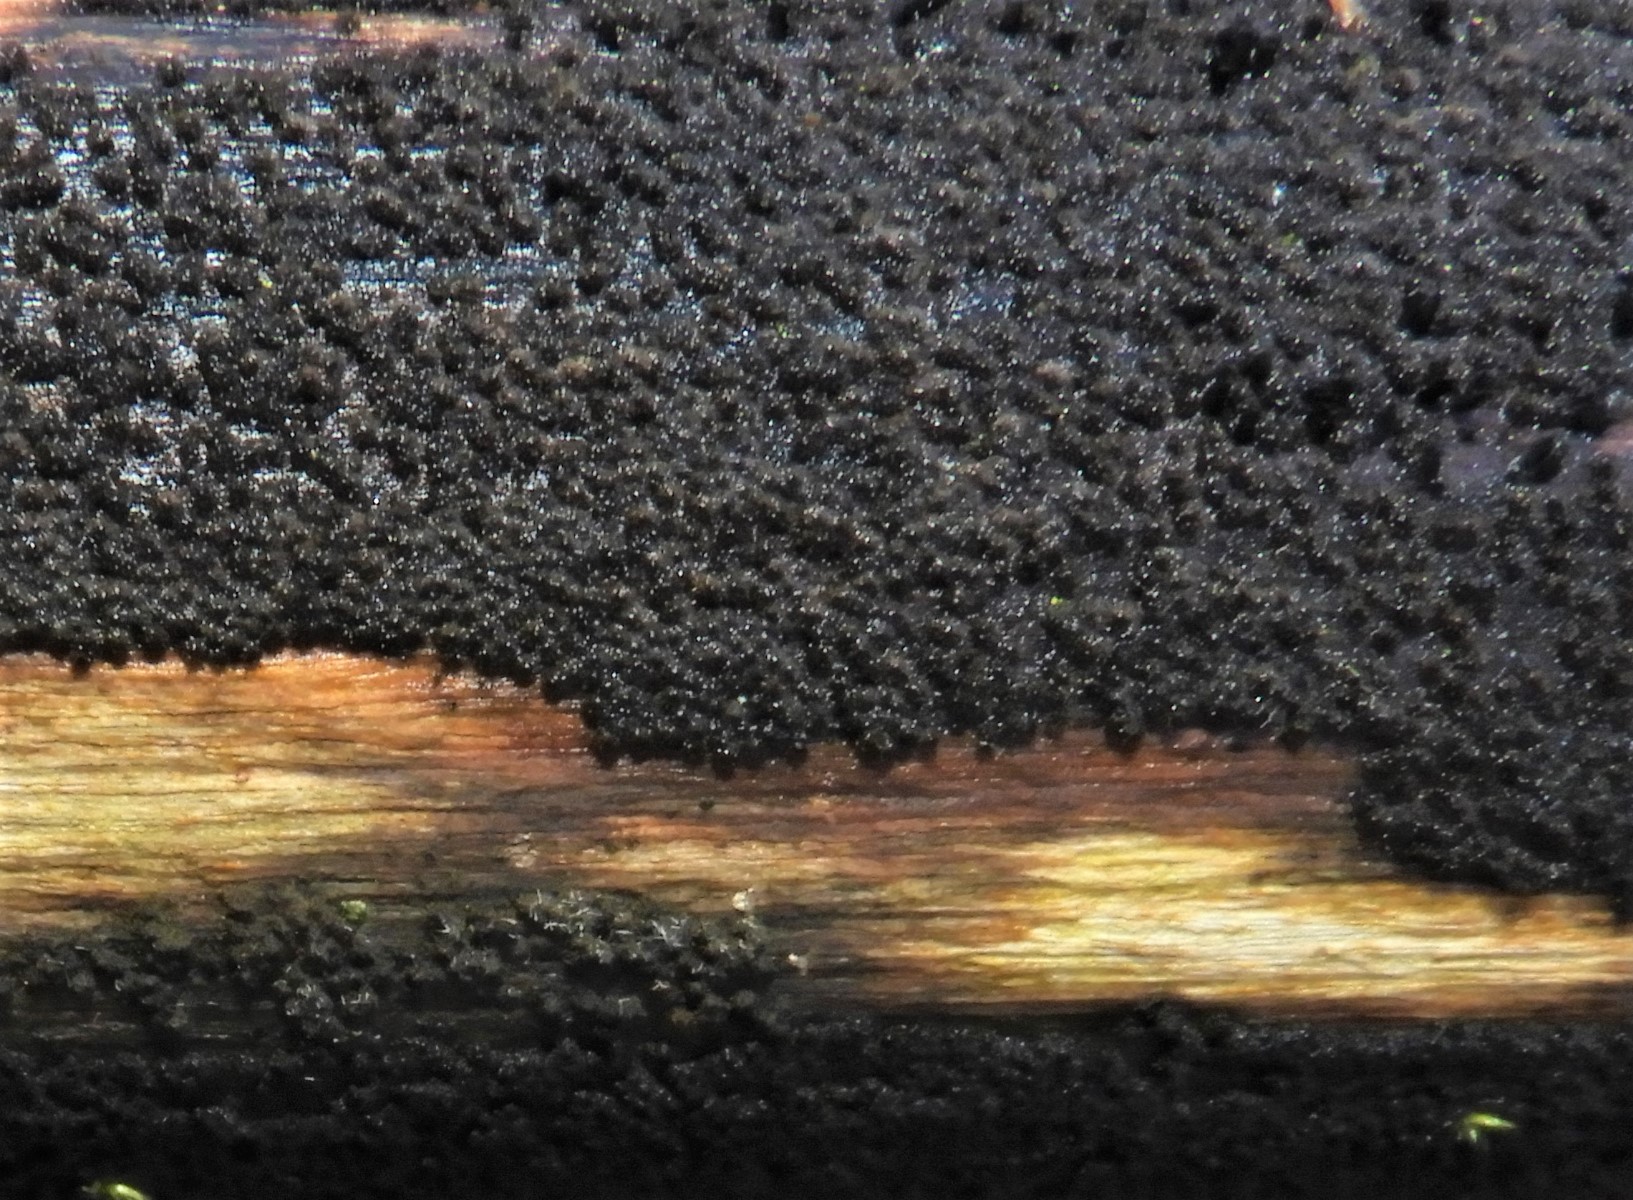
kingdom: Fungi
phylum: Ascomycota
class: Sordariomycetes
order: Xylariales
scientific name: Xylariales
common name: stødsvampordenen
